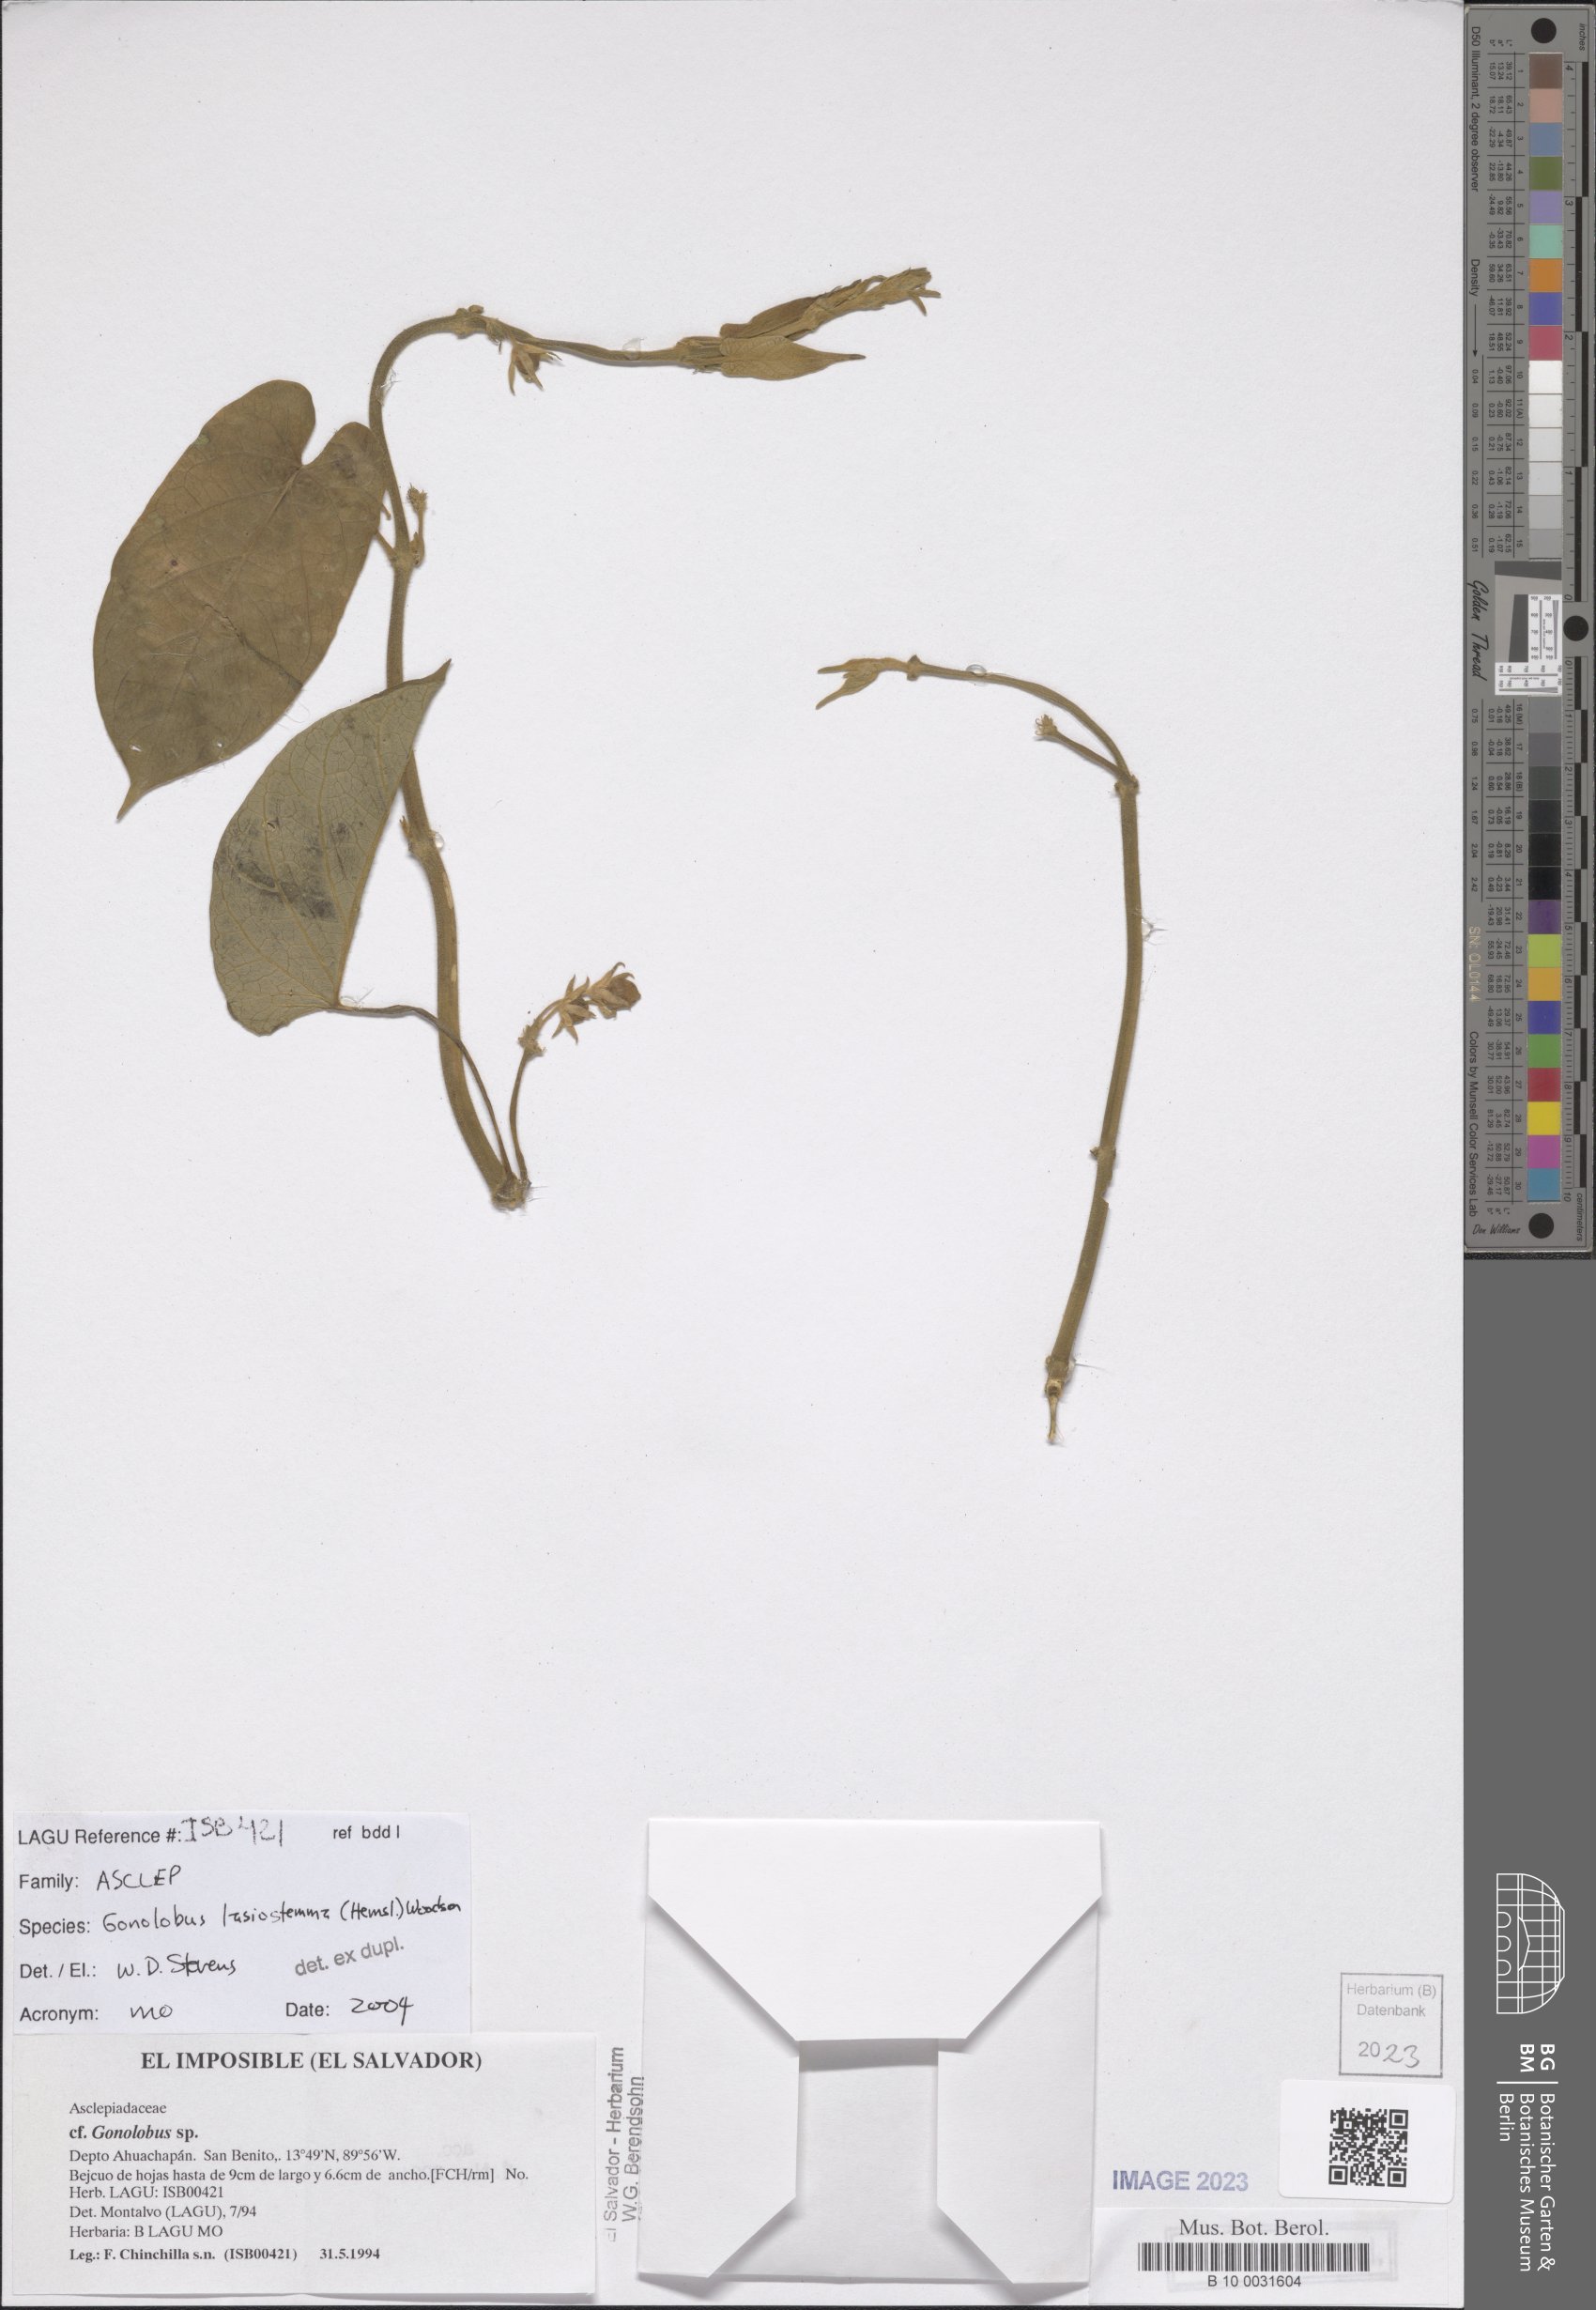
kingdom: Plantae
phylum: Tracheophyta
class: Magnoliopsida
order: Gentianales
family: Apocynaceae
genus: Gonolobus
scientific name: Gonolobus lasiostemma
